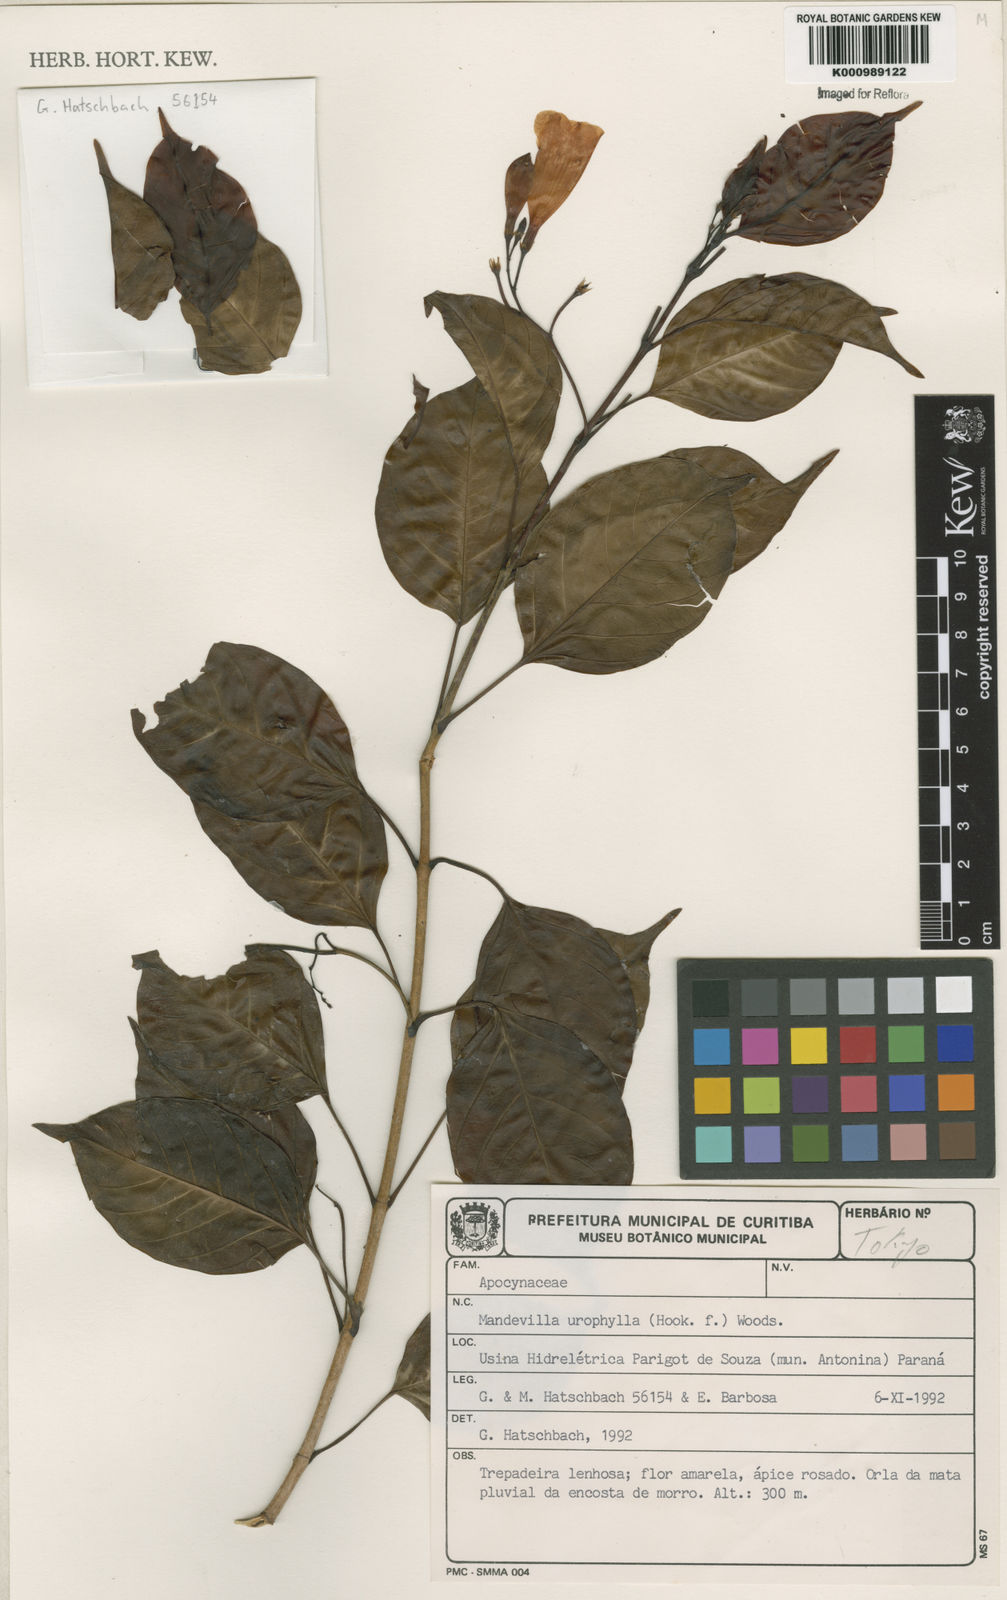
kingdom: Plantae
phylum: Tracheophyta
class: Magnoliopsida
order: Gentianales
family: Apocynaceae
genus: Mandevilla
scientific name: Mandevilla urophylla
